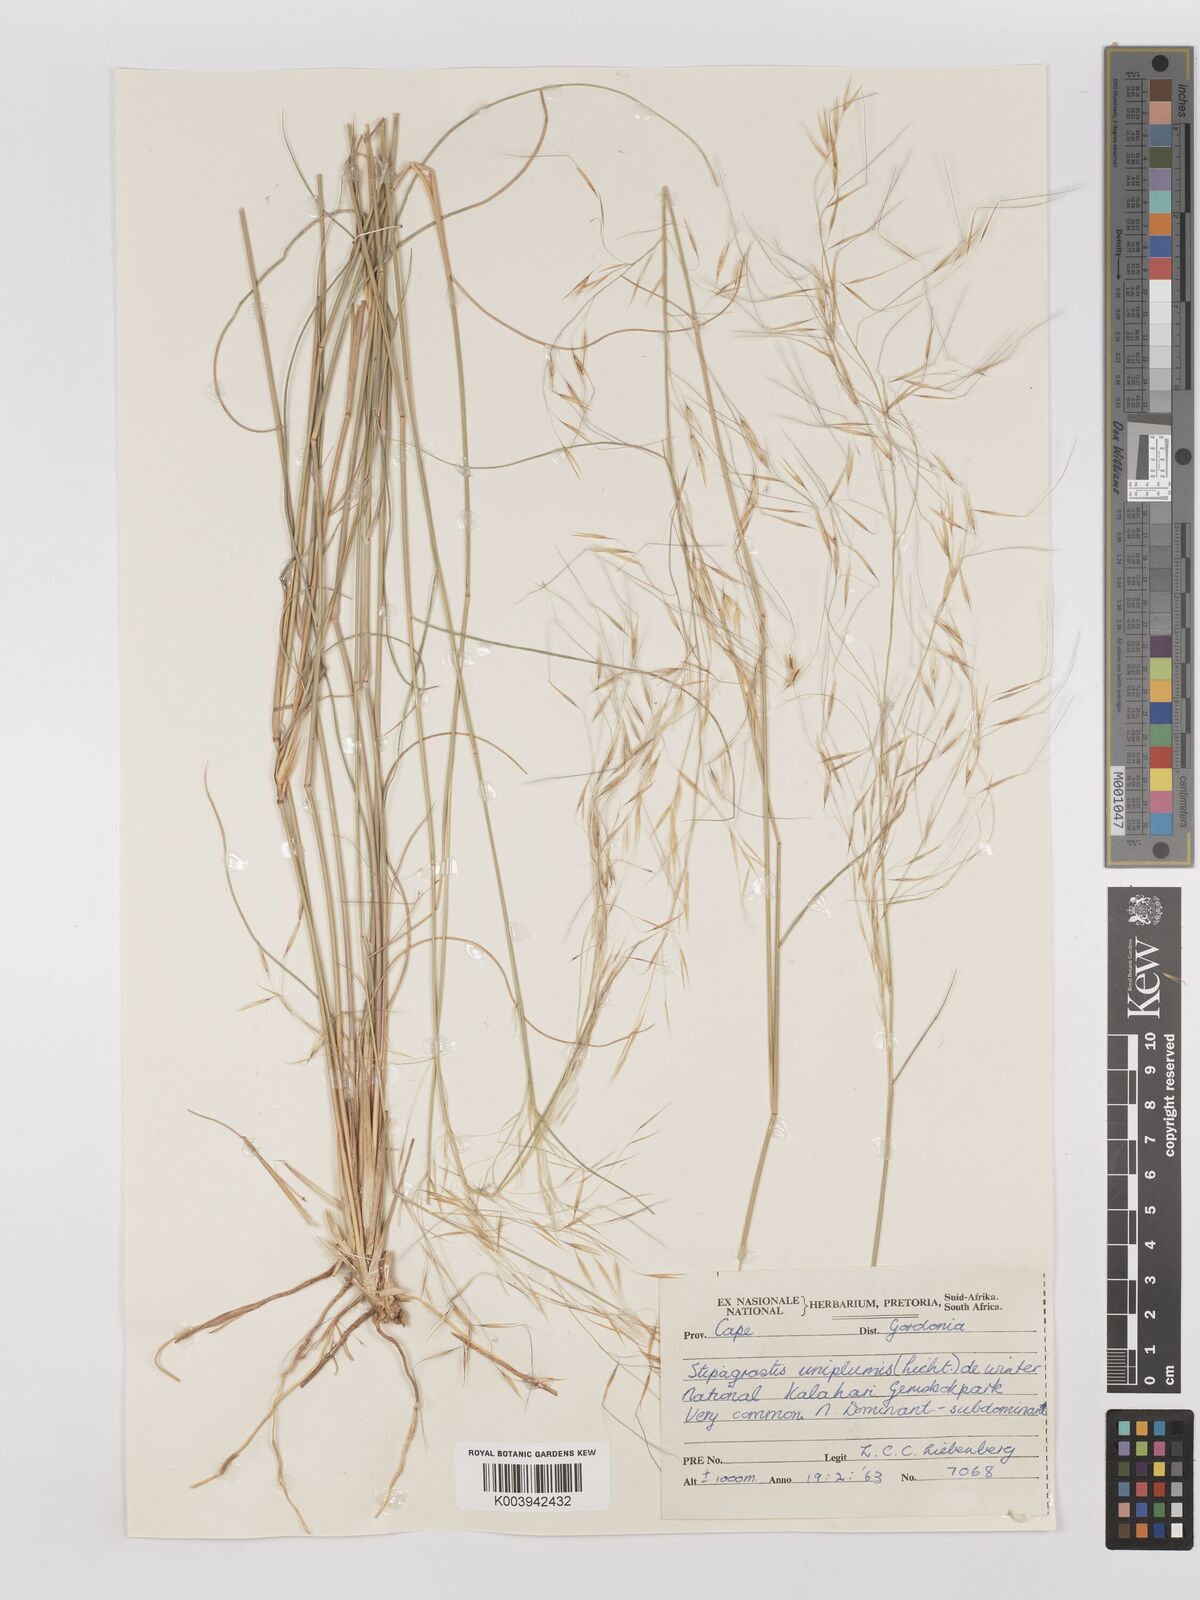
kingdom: Plantae
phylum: Tracheophyta
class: Liliopsida
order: Poales
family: Poaceae
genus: Stipagrostis
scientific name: Stipagrostis uniplumis
